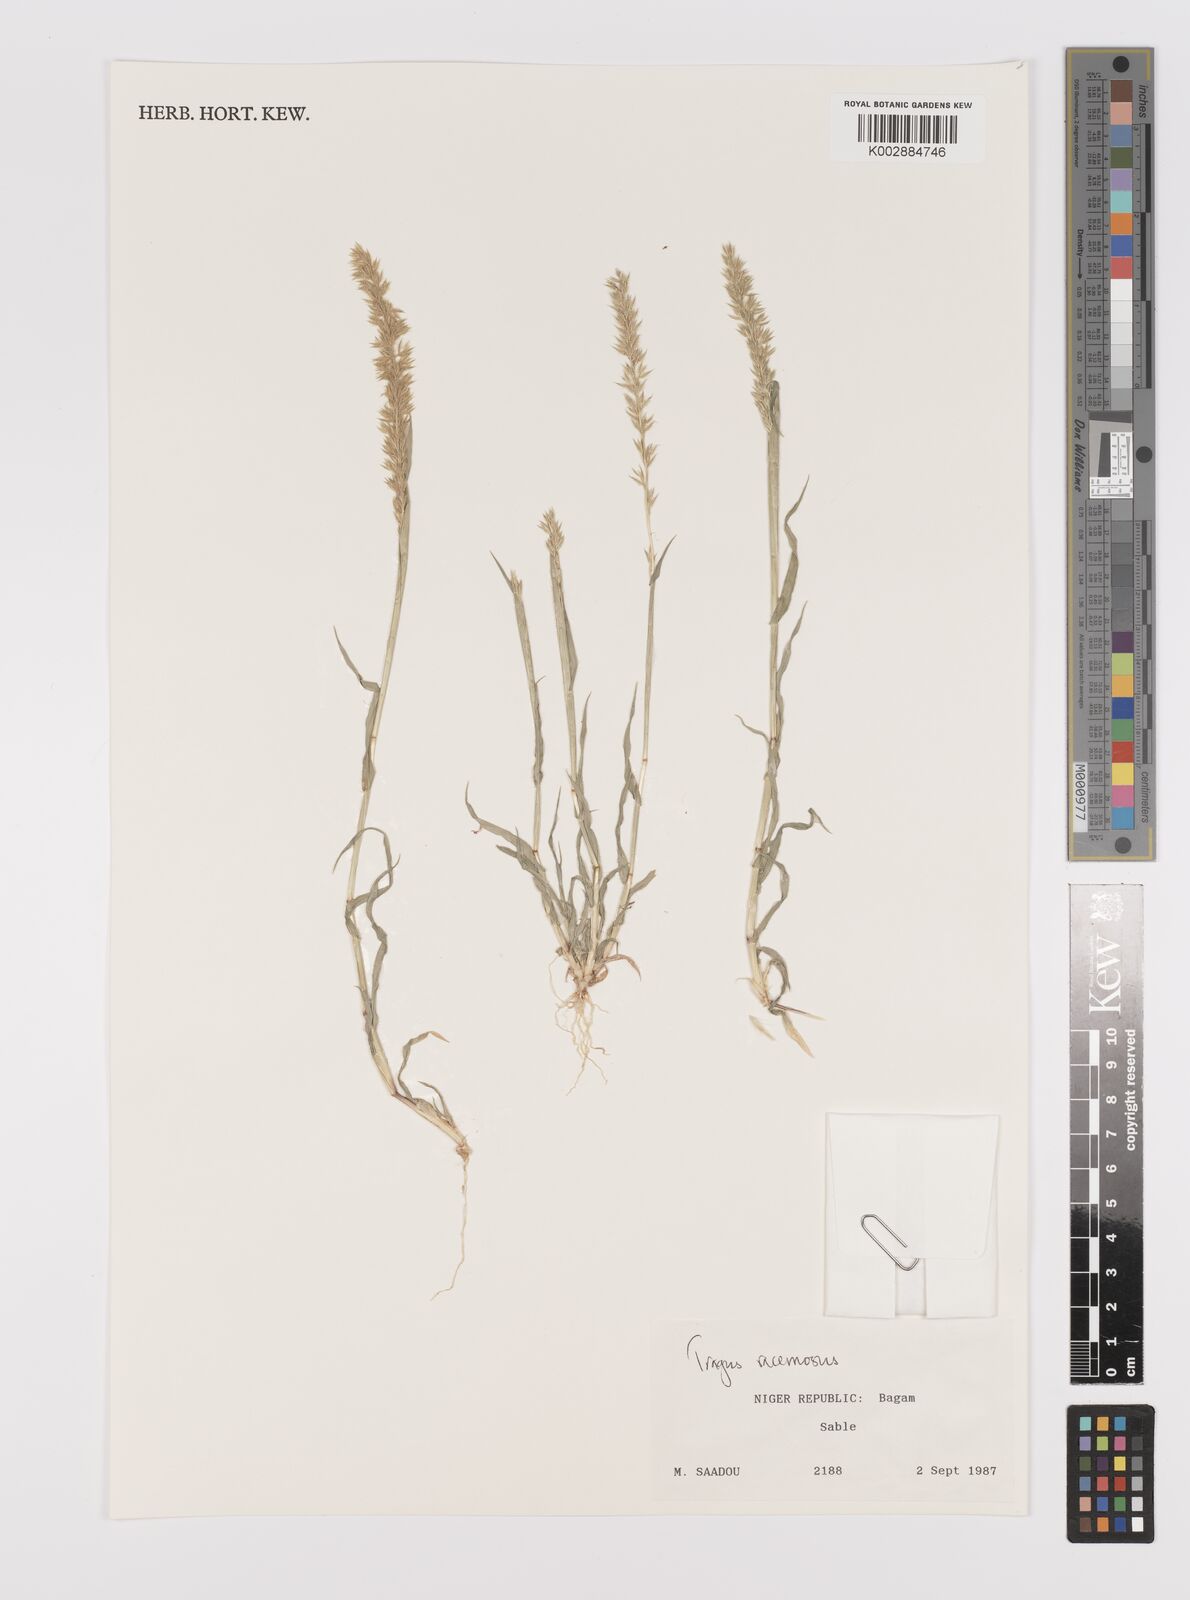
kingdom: Plantae
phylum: Tracheophyta
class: Liliopsida
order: Poales
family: Poaceae
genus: Tragus
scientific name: Tragus racemosus
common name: European bur-grass
